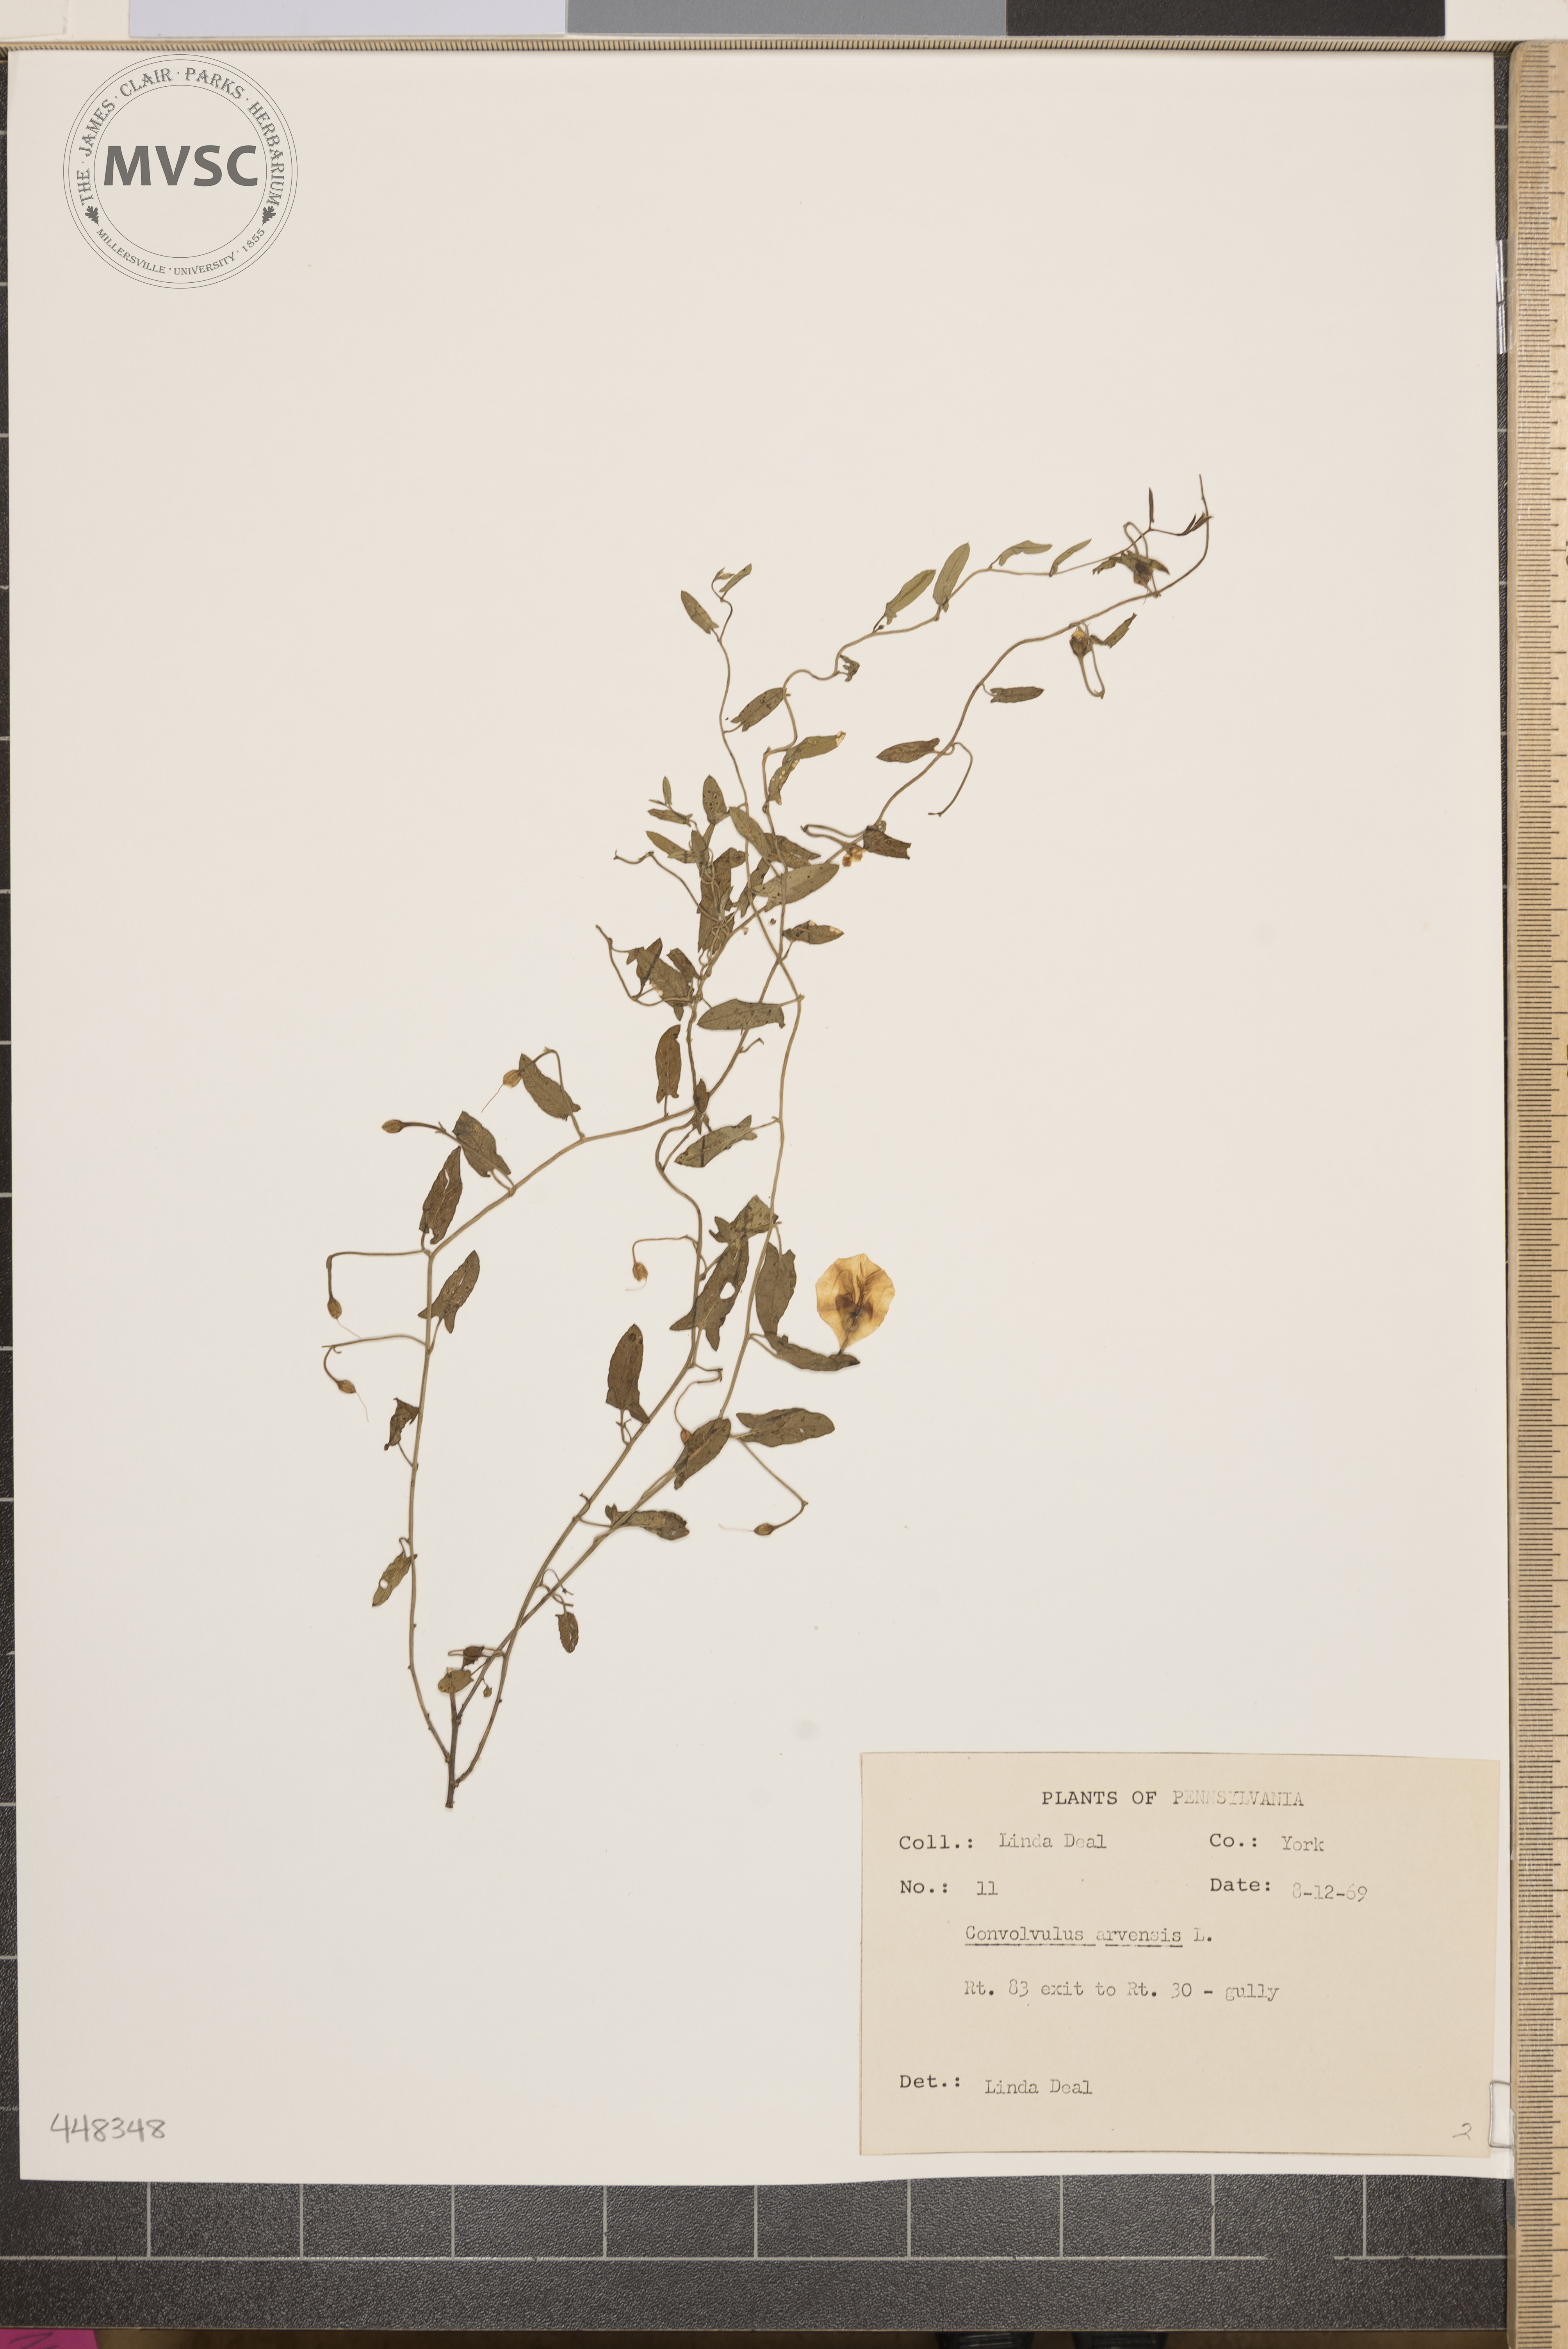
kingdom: Plantae
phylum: Tracheophyta
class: Magnoliopsida
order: Solanales
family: Convolvulaceae
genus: Convolvulus
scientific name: Convolvulus arvensis
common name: Field bindweed
